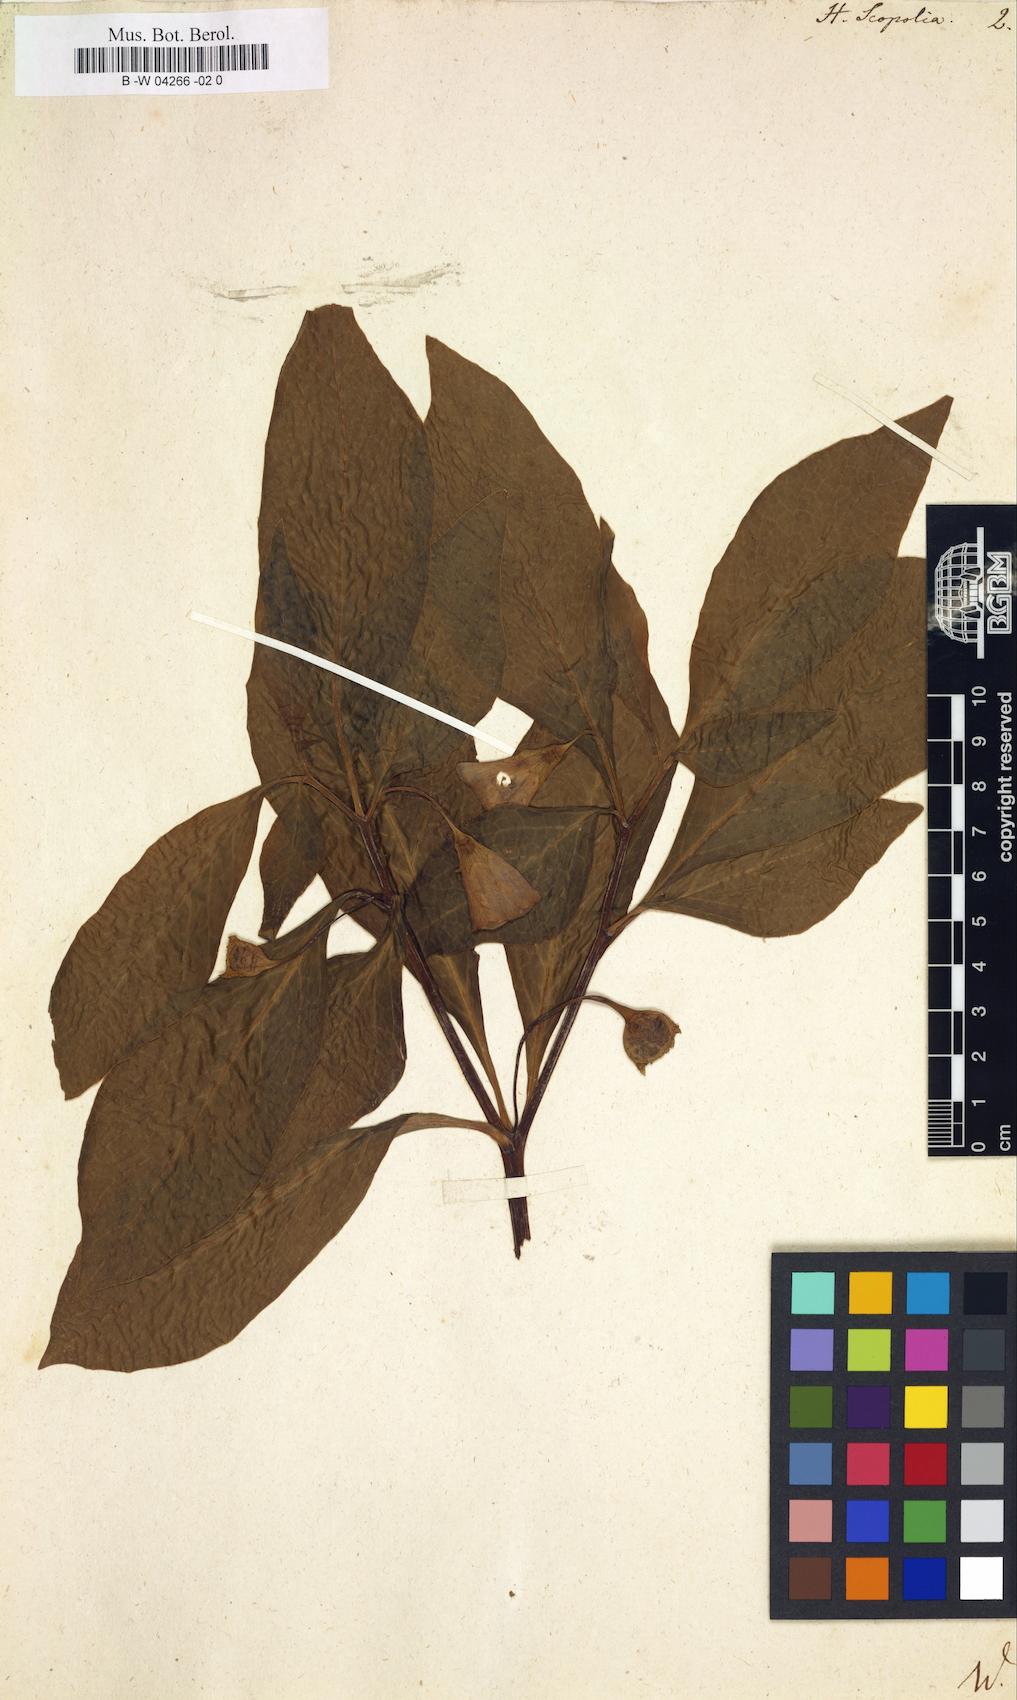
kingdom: Plantae
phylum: Tracheophyta
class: Magnoliopsida
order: Solanales
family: Solanaceae
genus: Scopolia
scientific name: Scopolia carniolica
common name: Scopolia
